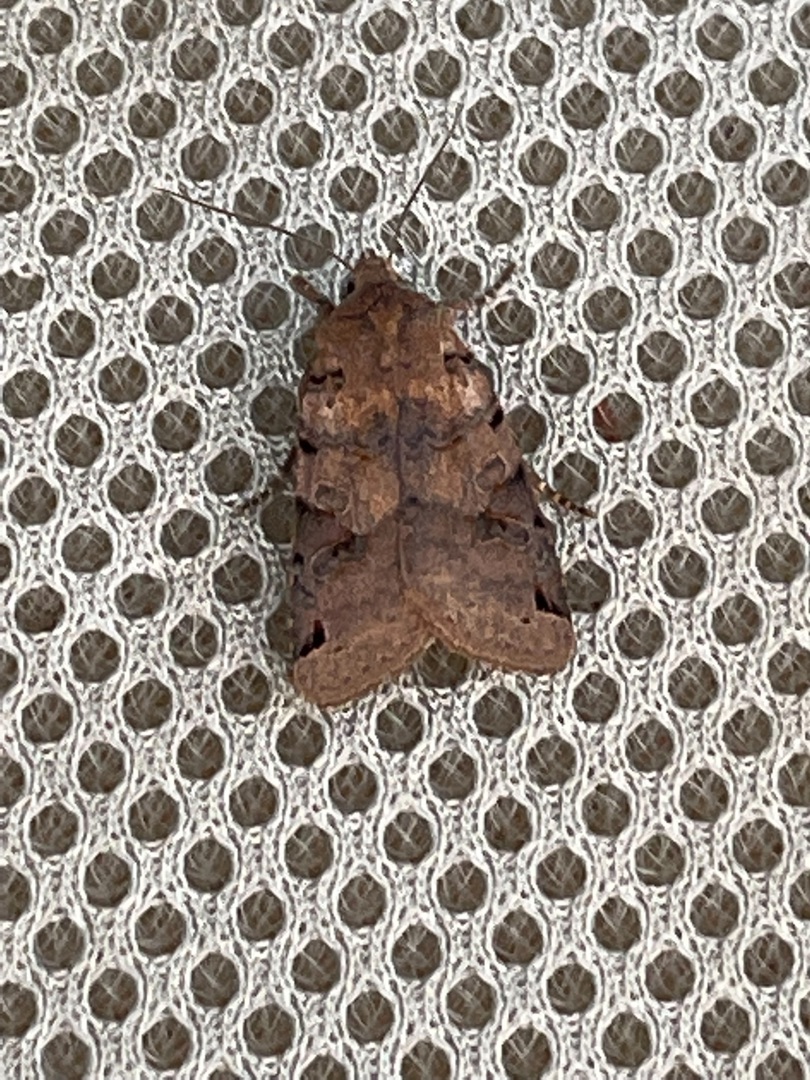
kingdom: Animalia
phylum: Arthropoda
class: Insecta
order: Lepidoptera
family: Noctuidae
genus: Agrochola
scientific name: Agrochola litura
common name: Kantplettet jordfarveugle
